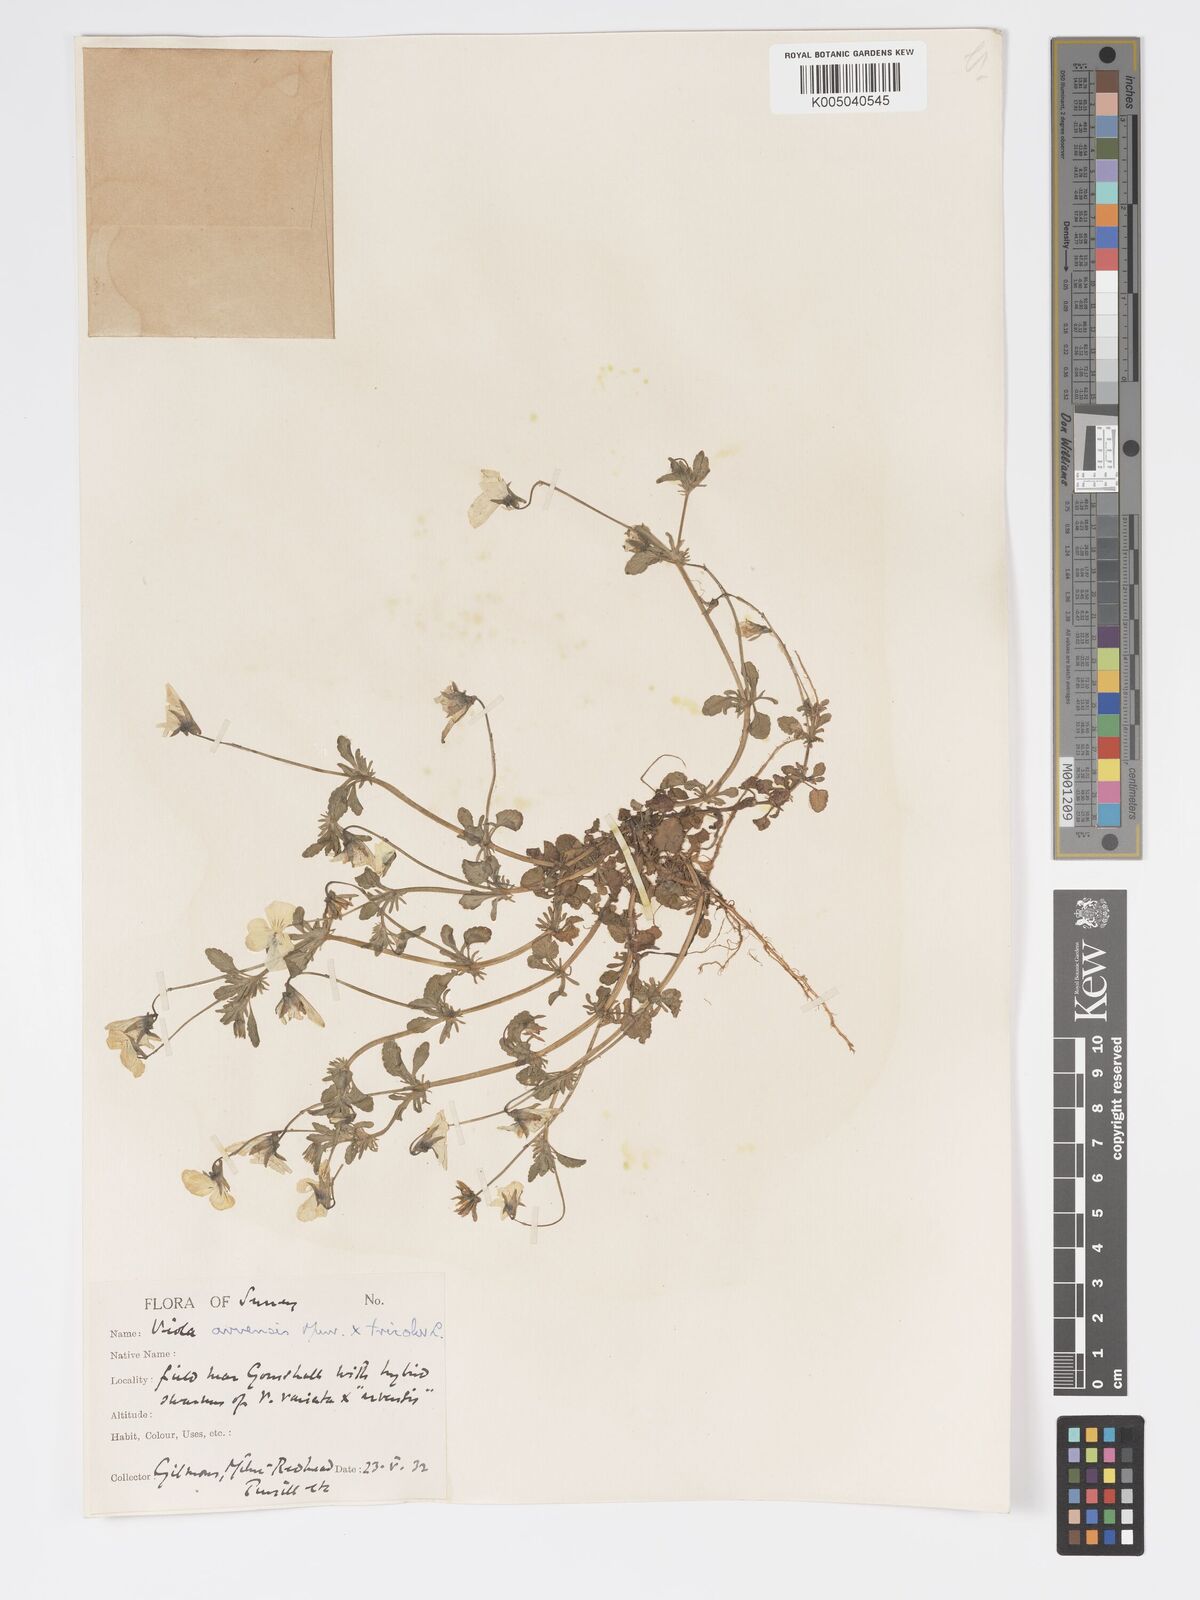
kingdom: Plantae
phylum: Tracheophyta
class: Magnoliopsida
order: Malpighiales
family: Violaceae
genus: Viola
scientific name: Viola
